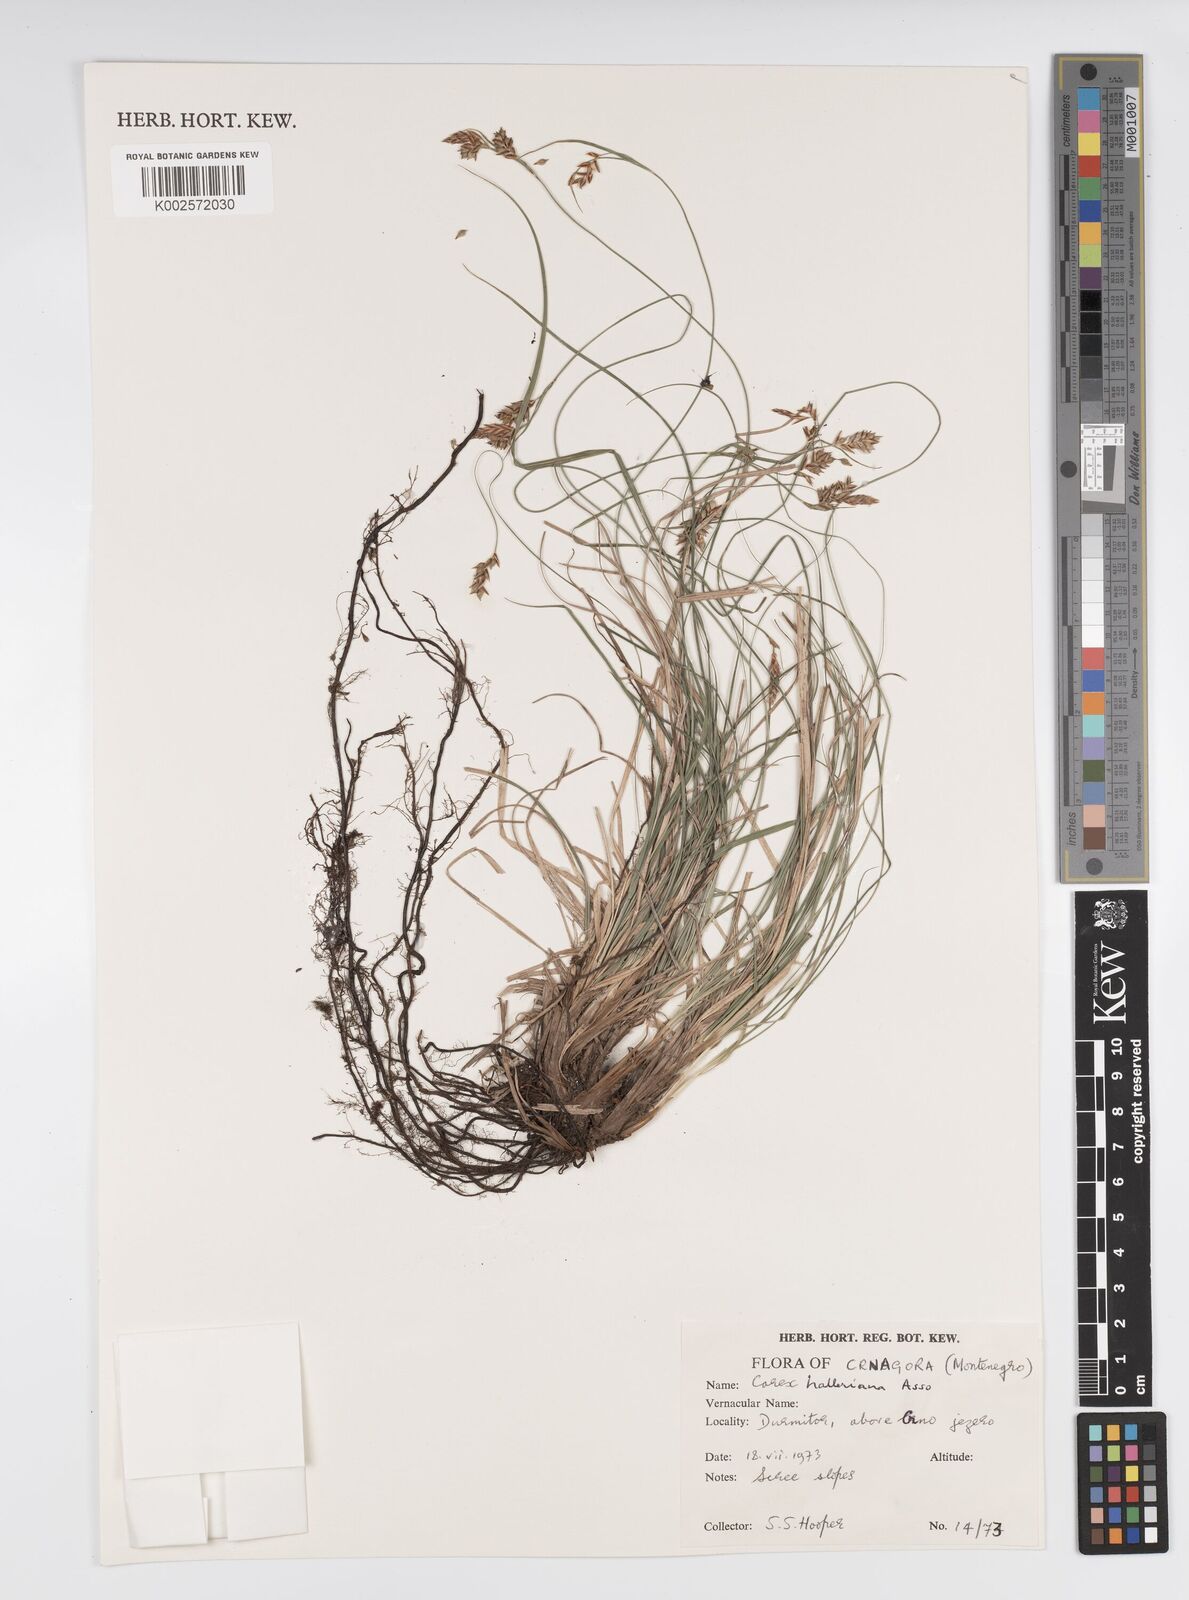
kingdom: Plantae
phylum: Tracheophyta
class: Liliopsida
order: Poales
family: Cyperaceae
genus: Carex
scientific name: Carex halleriana
